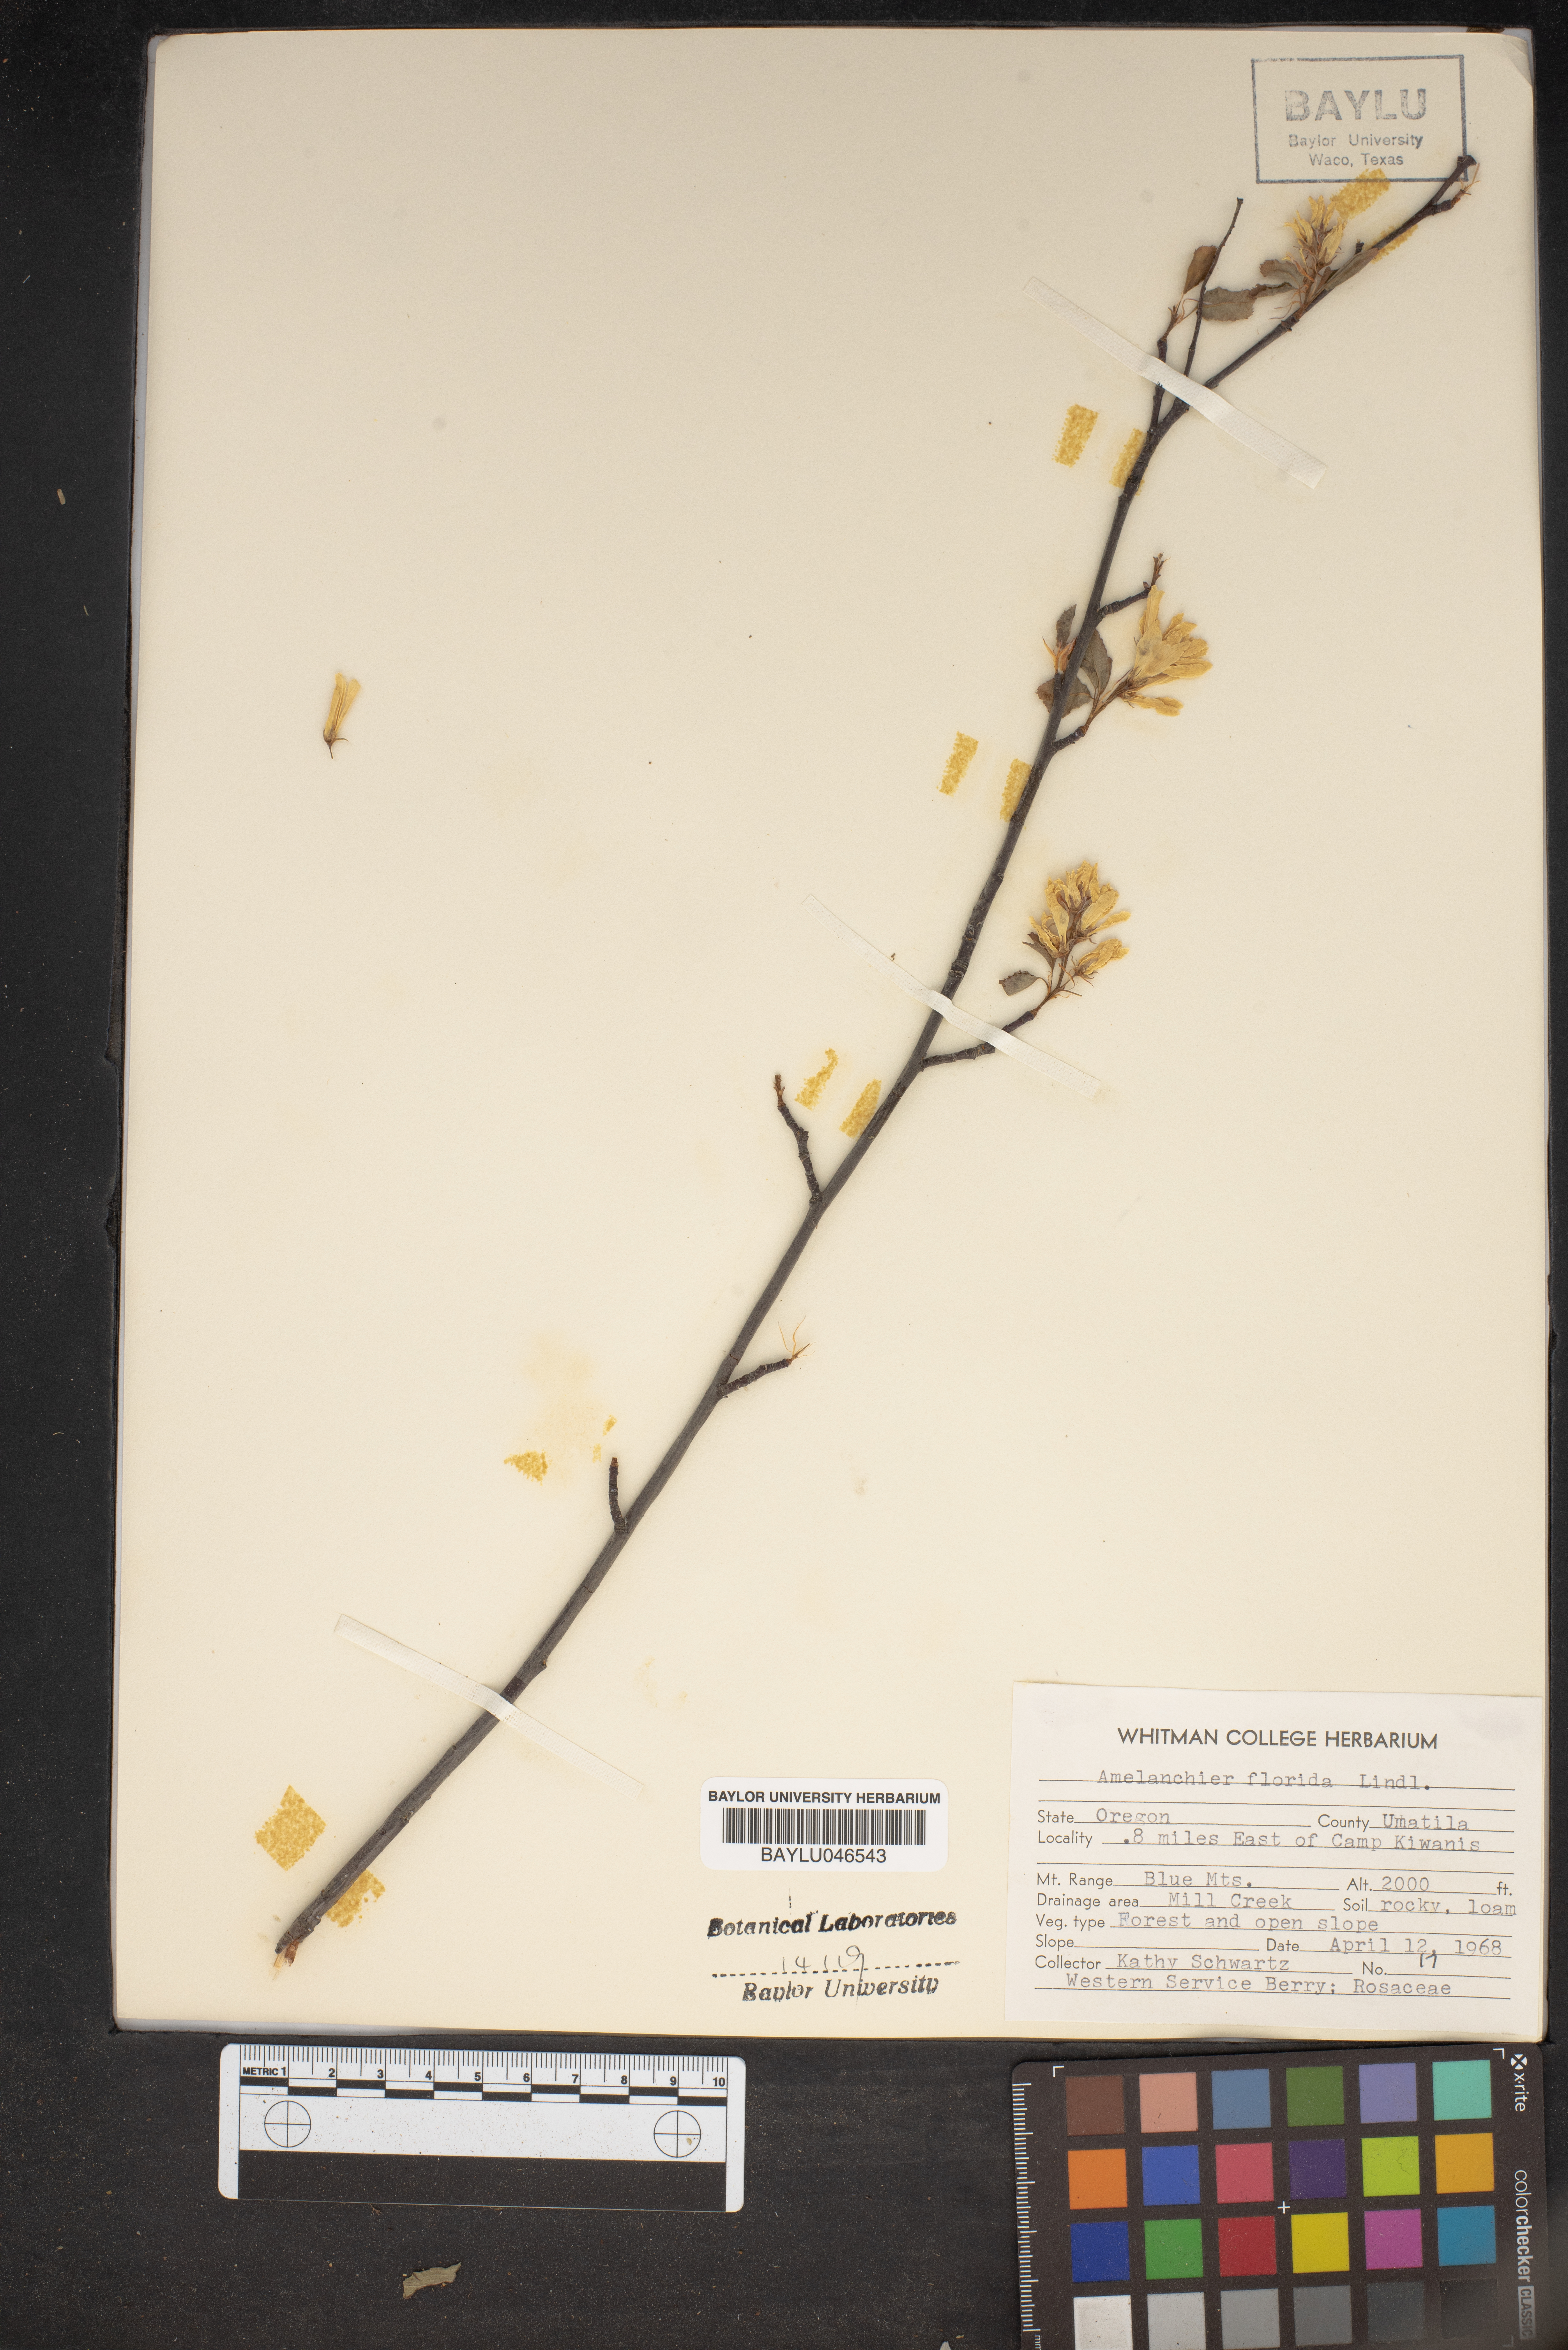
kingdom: Plantae
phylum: Tracheophyta
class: Magnoliopsida
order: Rosales
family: Rosaceae
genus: Amelanchier
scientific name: Amelanchier alnifolia
